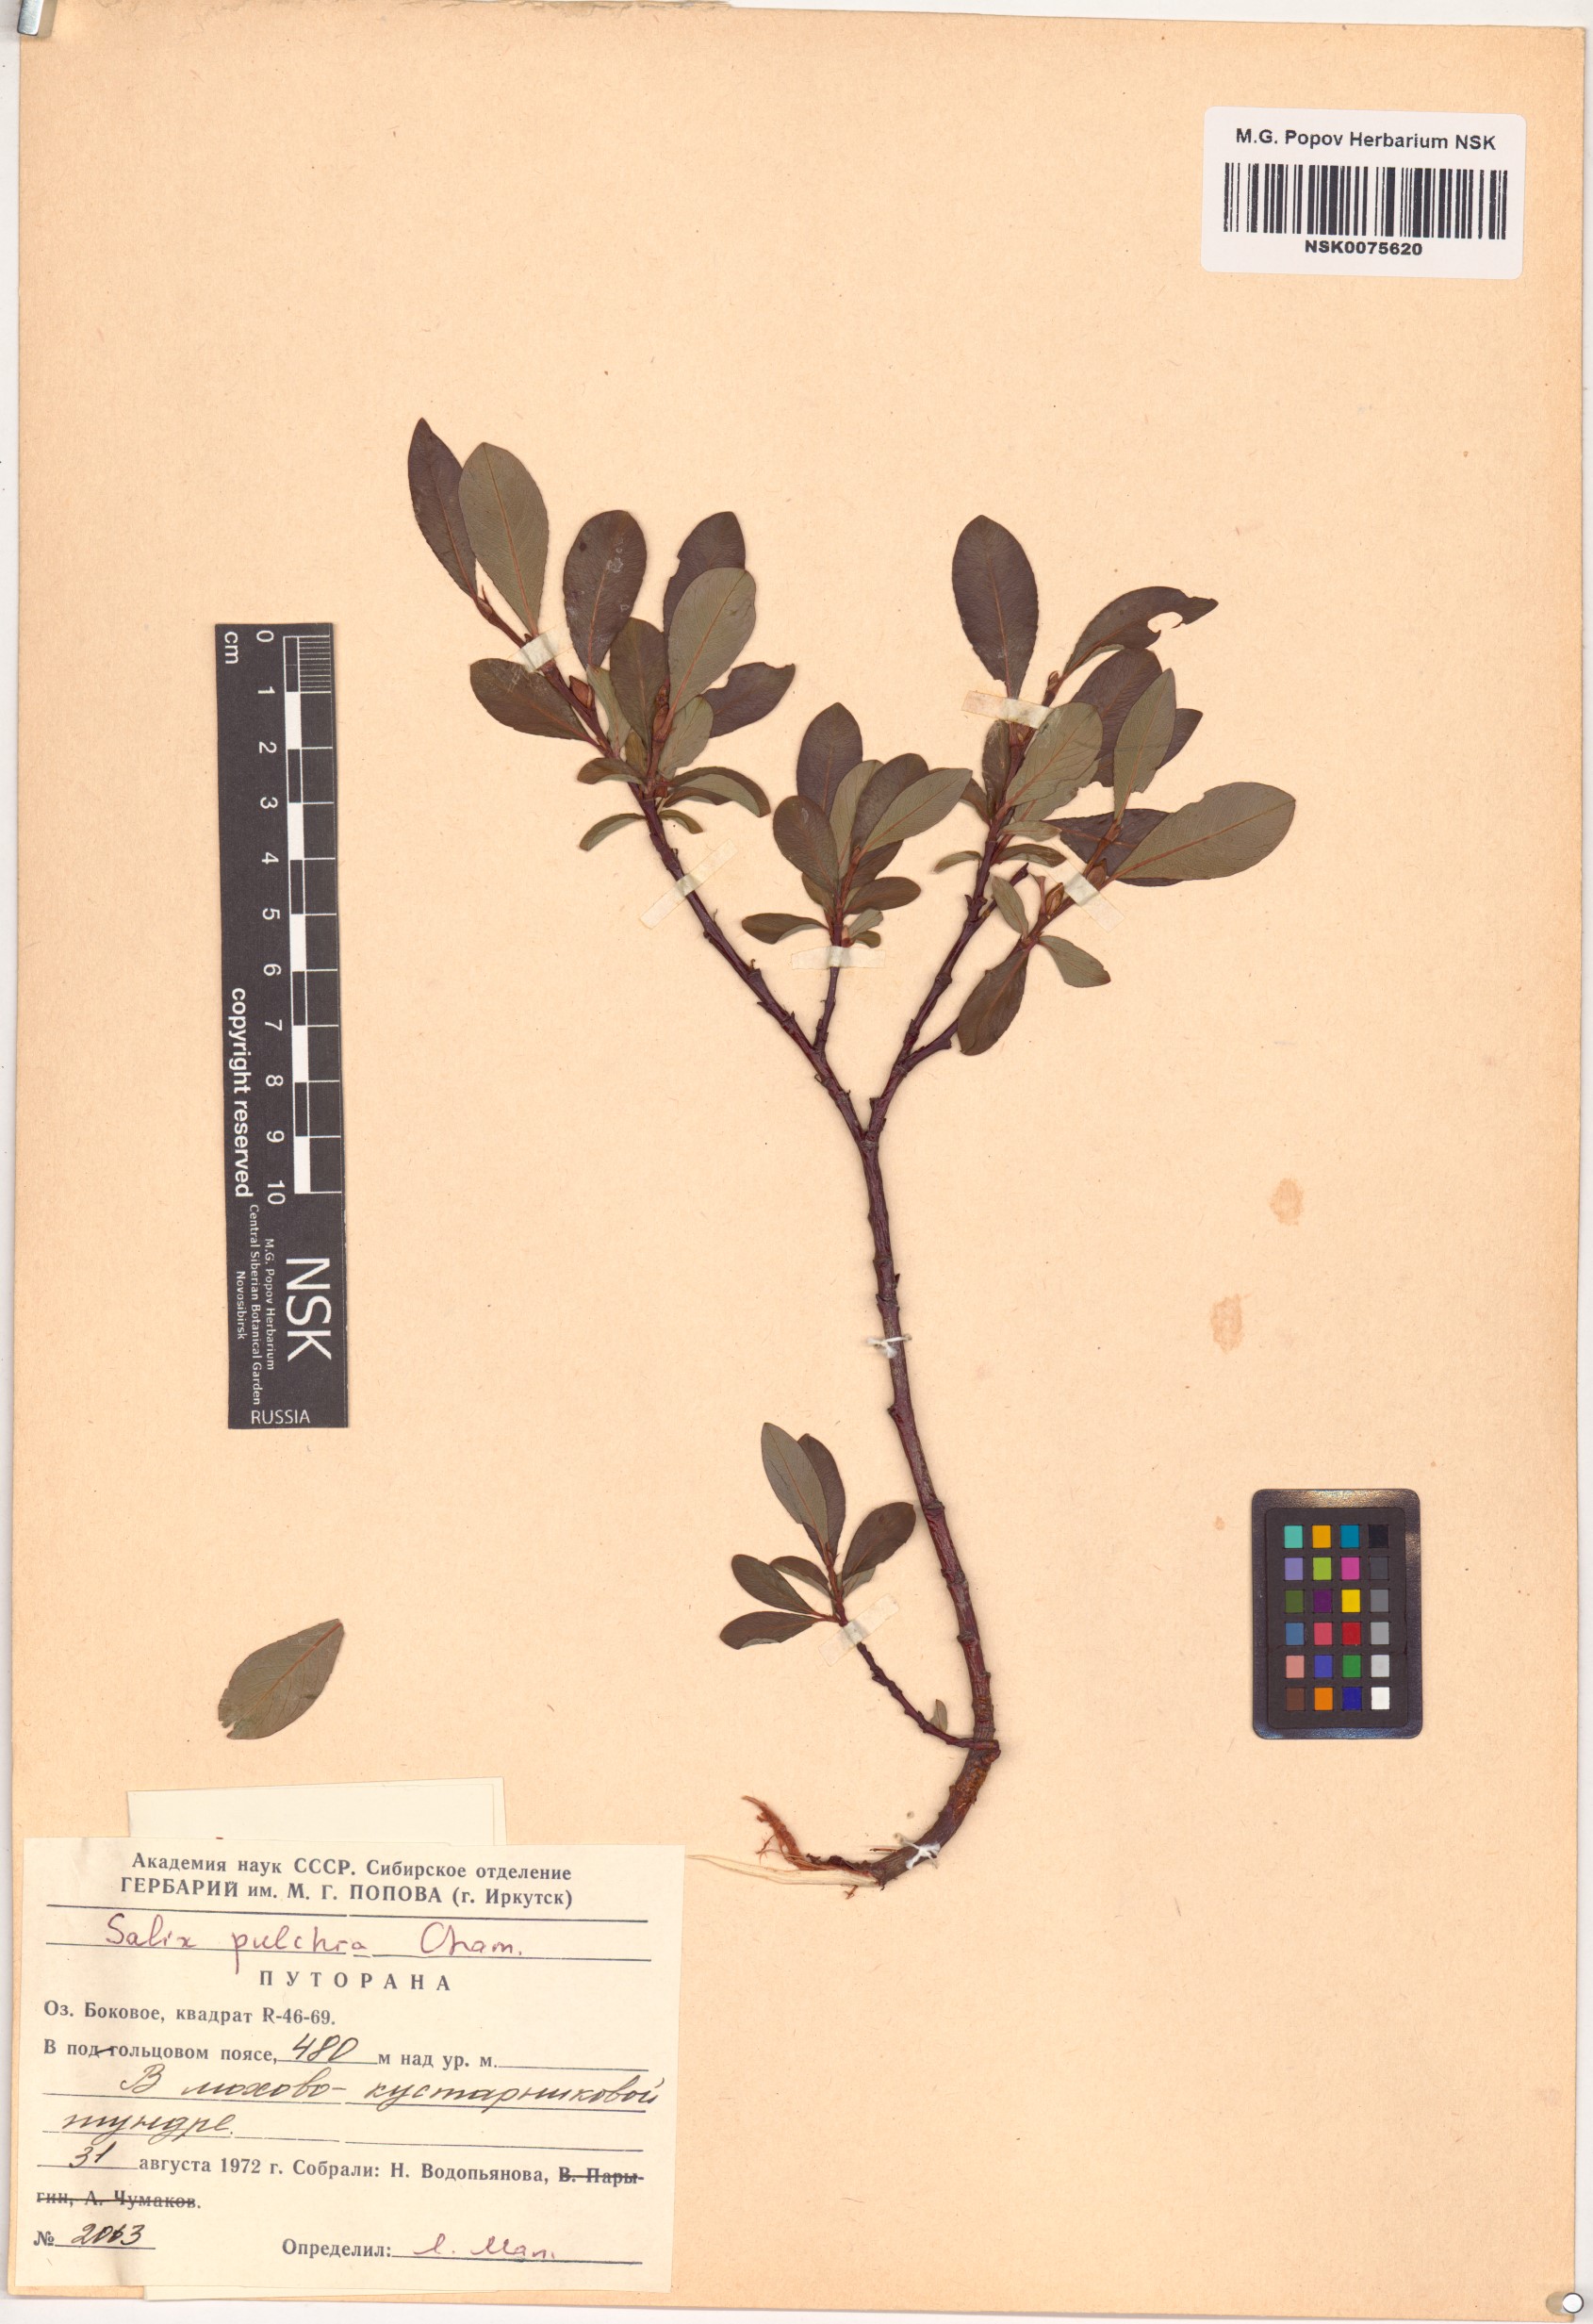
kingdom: Plantae
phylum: Tracheophyta
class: Magnoliopsida
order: Malpighiales
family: Salicaceae
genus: Salix
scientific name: Salix pulchra
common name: Diamond-leaved willow
